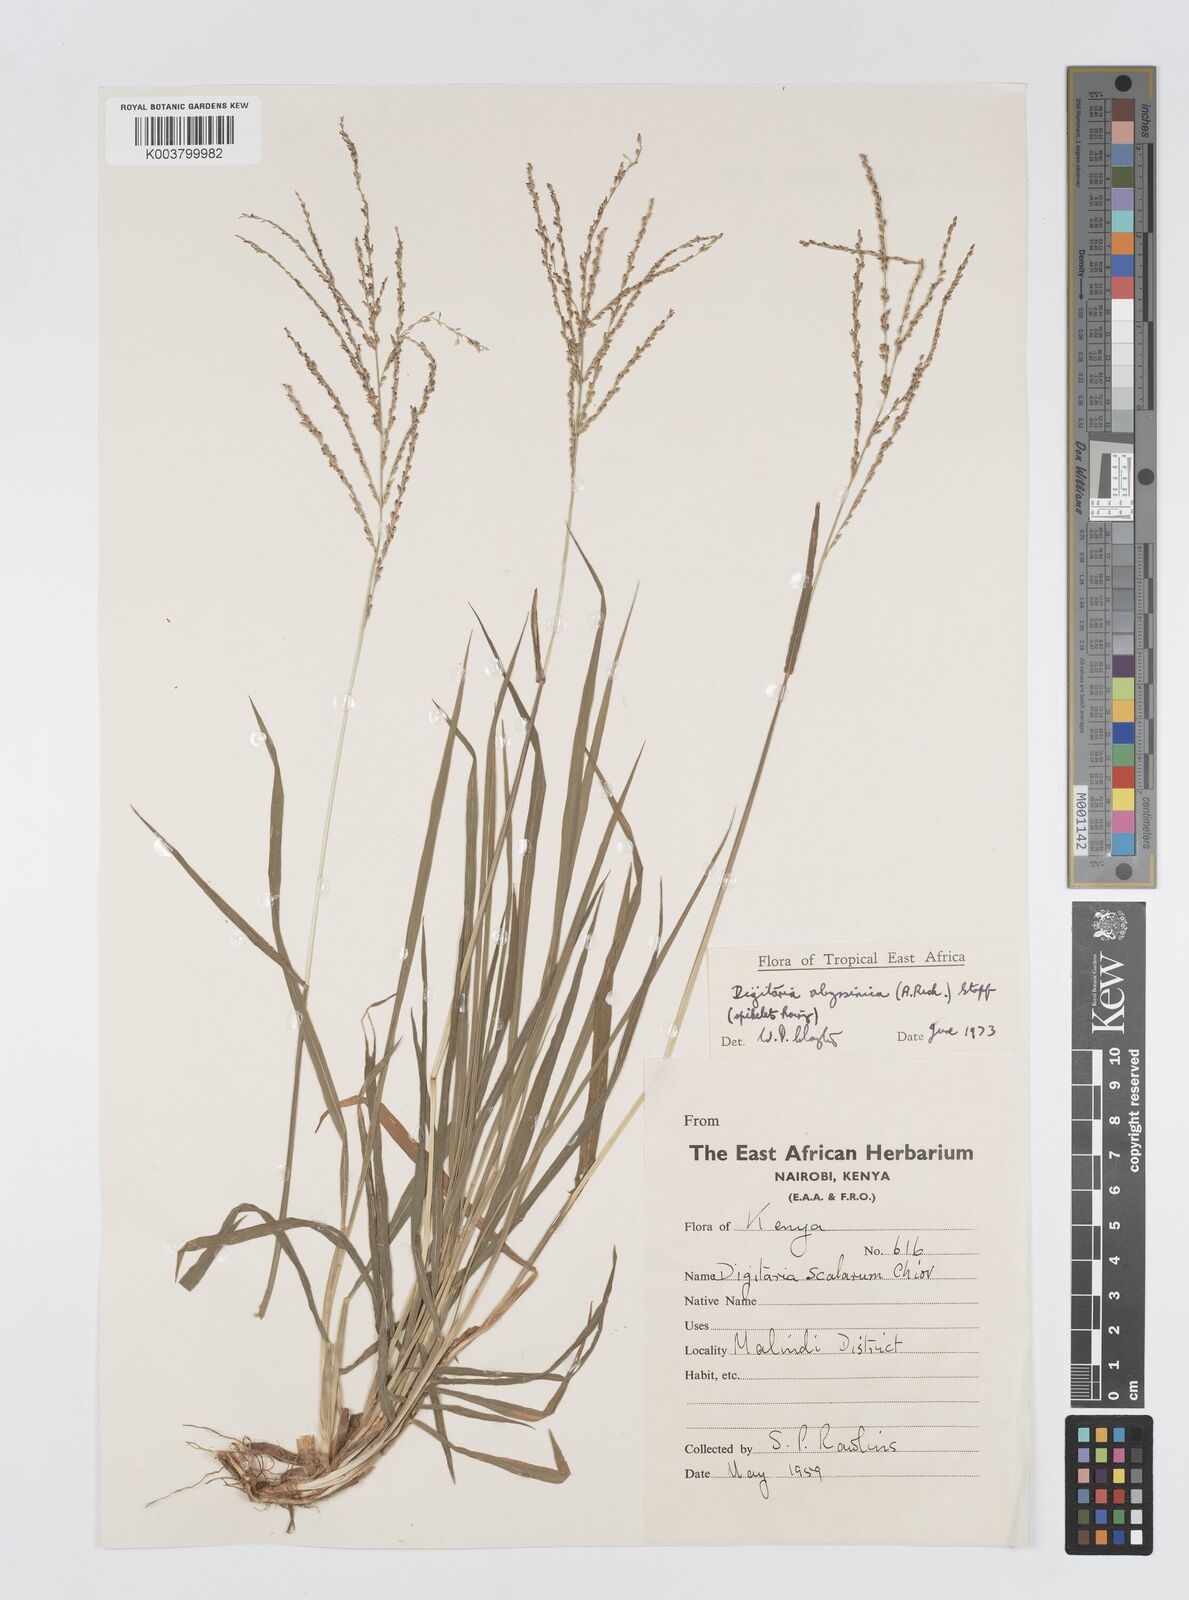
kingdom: Plantae
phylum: Tracheophyta
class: Liliopsida
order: Poales
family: Poaceae
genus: Digitaria
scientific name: Digitaria abyssinica
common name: African couchgrass
